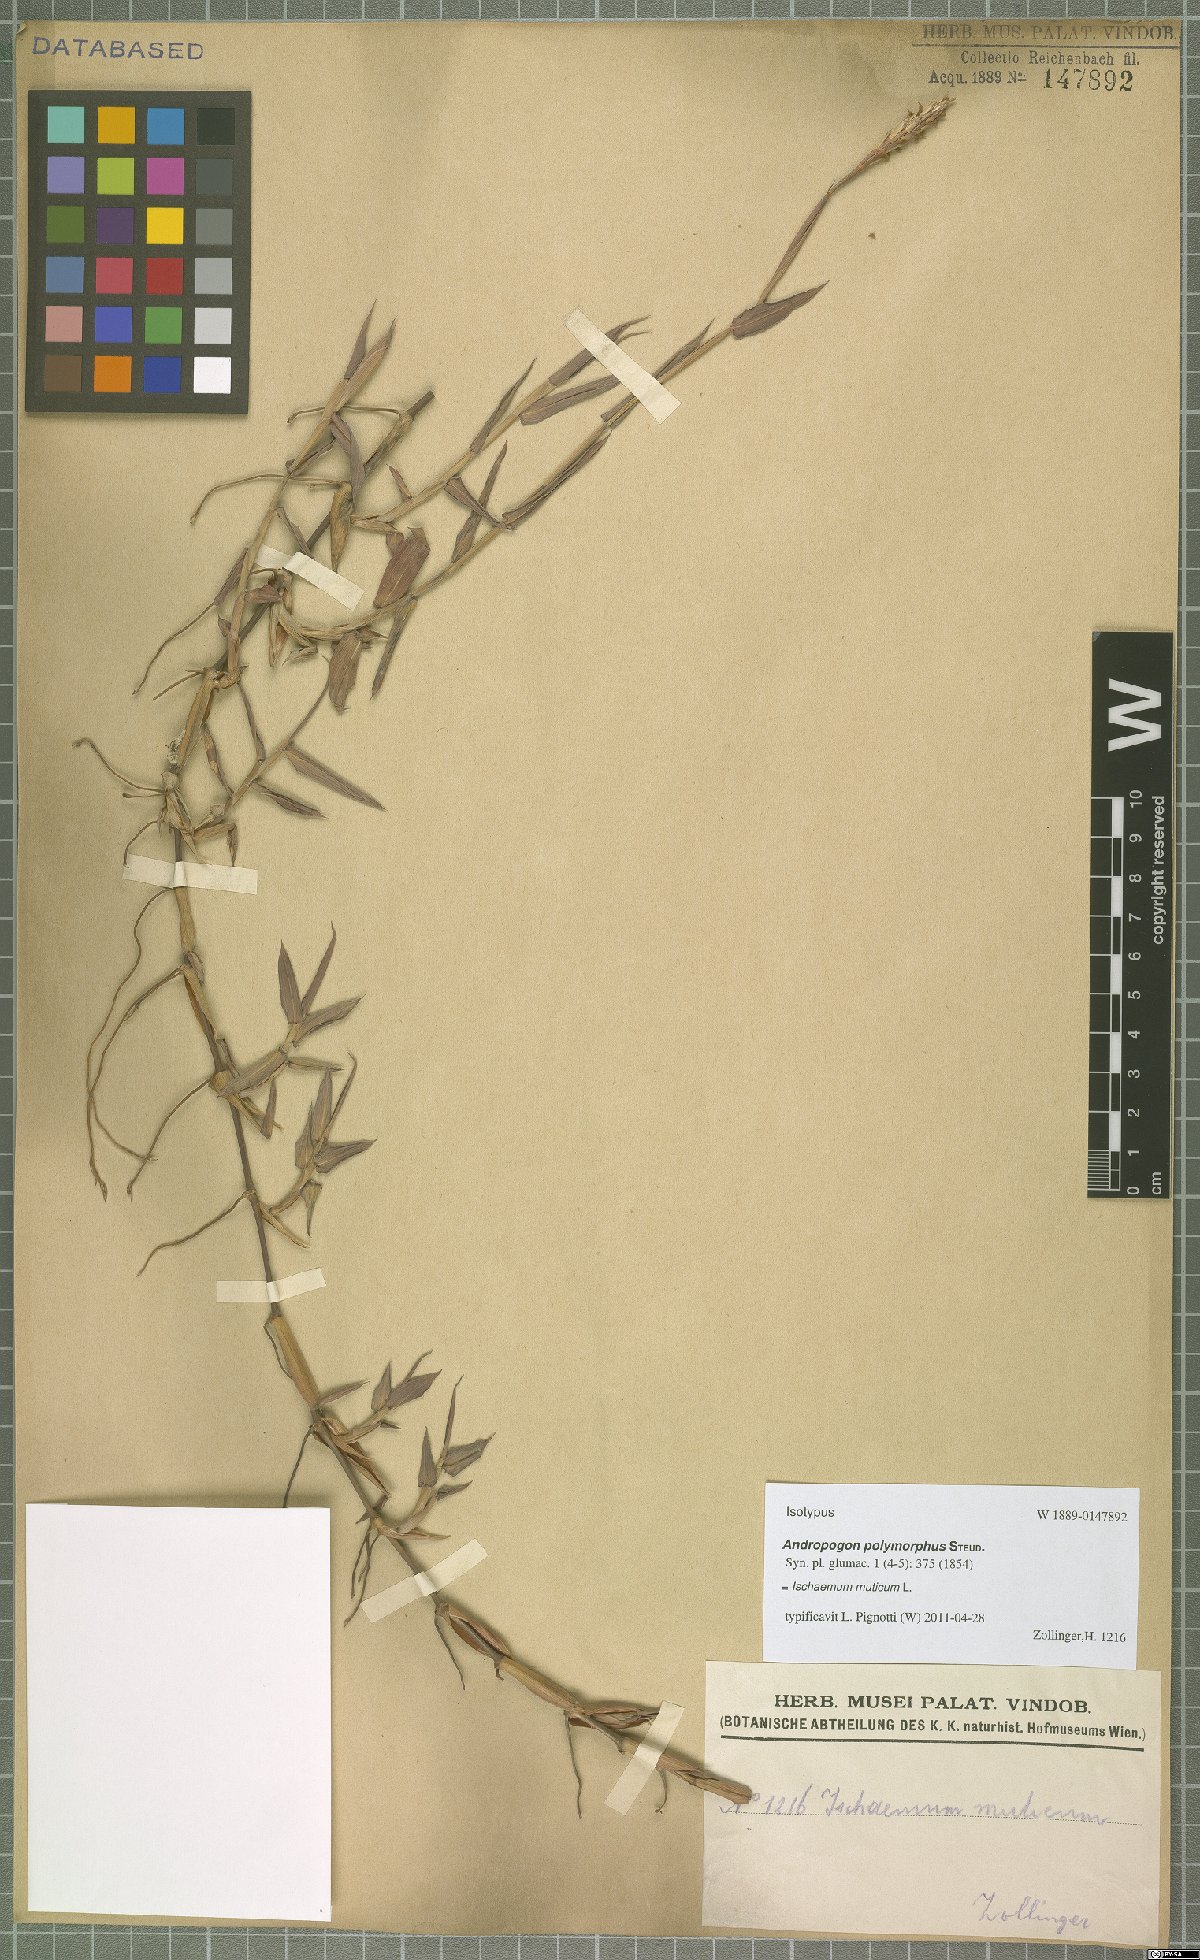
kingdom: Plantae
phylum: Tracheophyta
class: Liliopsida
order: Poales
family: Poaceae
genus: Ischaemum
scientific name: Ischaemum muticum
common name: Drought grass
